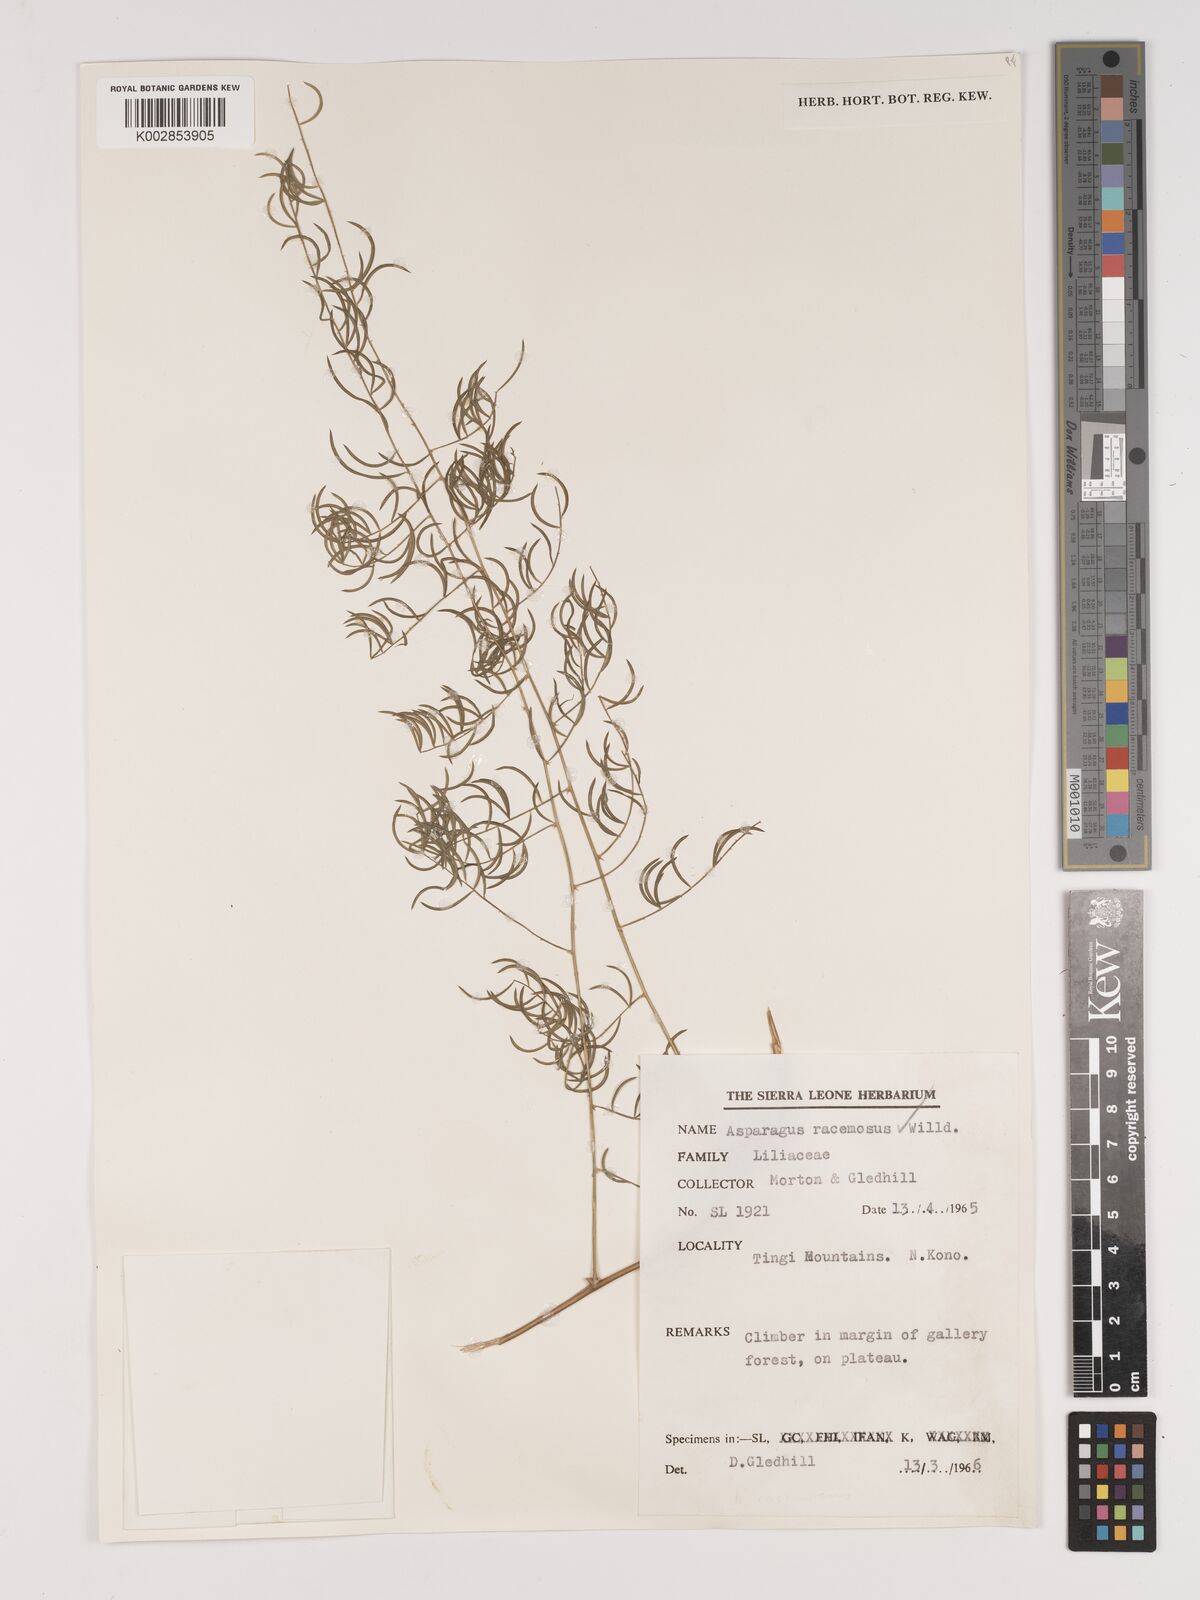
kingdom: Plantae
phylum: Tracheophyta
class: Liliopsida
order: Asparagales
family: Asparagaceae
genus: Asparagus
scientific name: Asparagus racemosus
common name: Asparagus-fern
